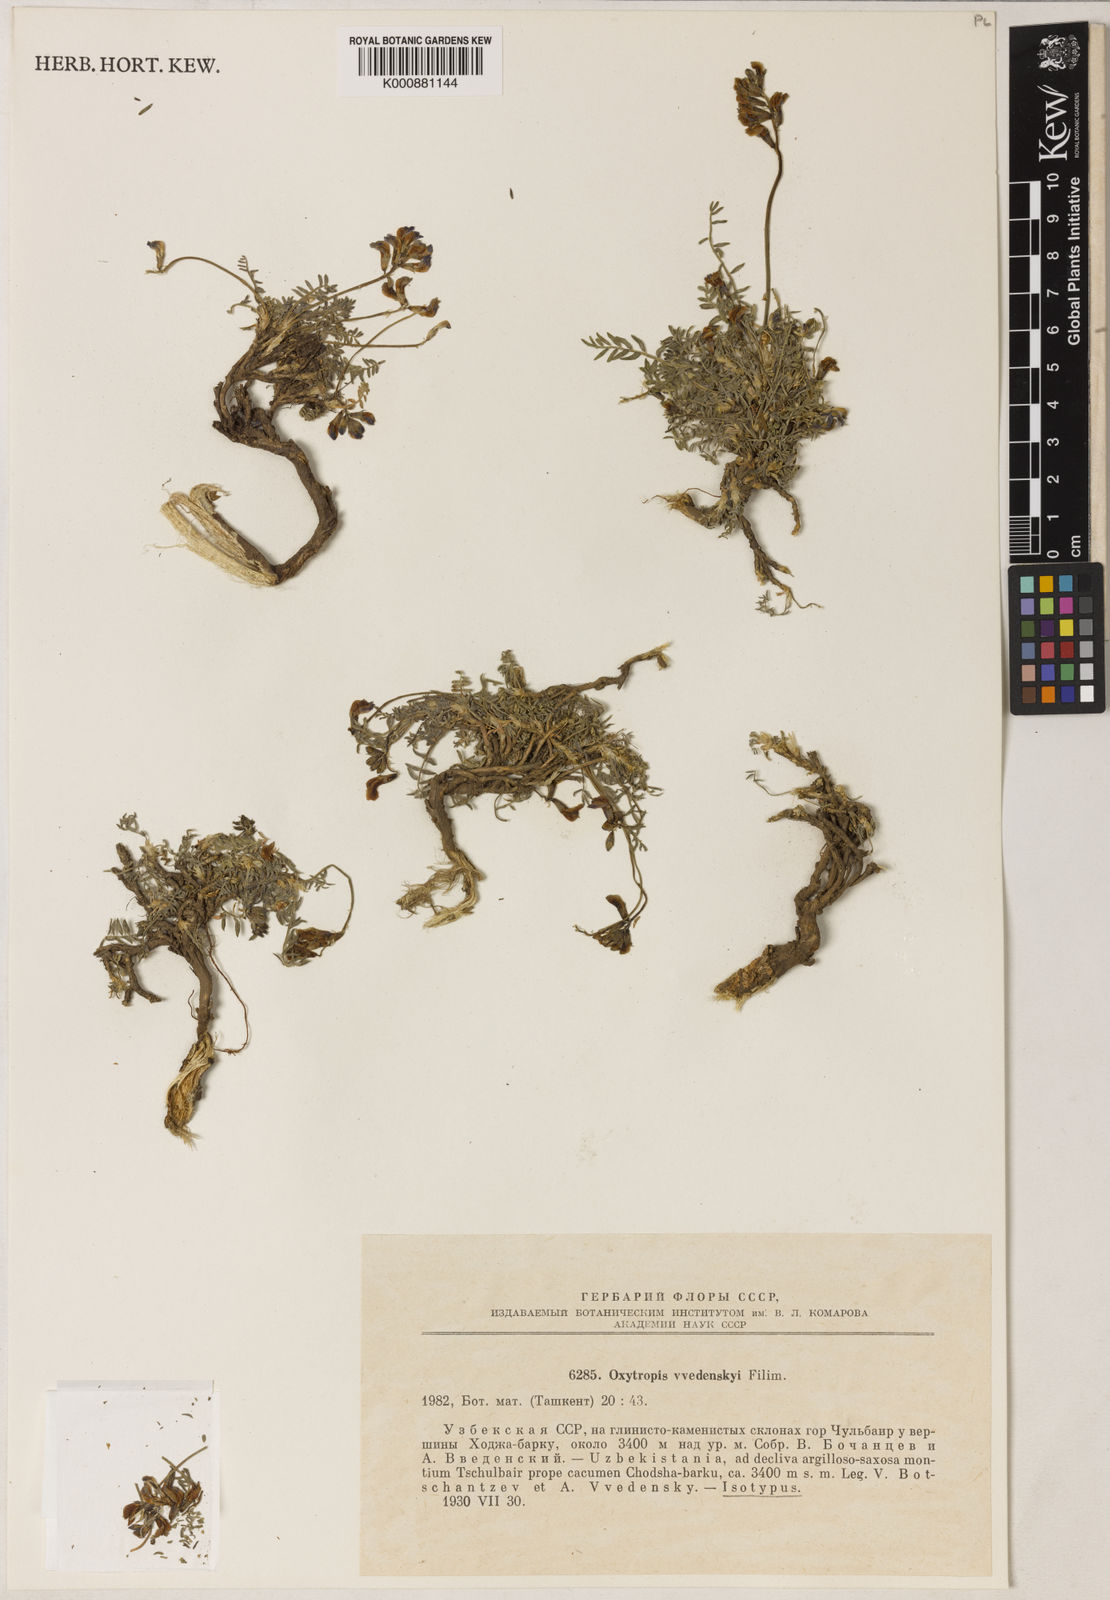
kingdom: Plantae
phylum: Tracheophyta
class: Magnoliopsida
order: Fabales
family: Fabaceae
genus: Oxytropis
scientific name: Oxytropis vvedenskyi
